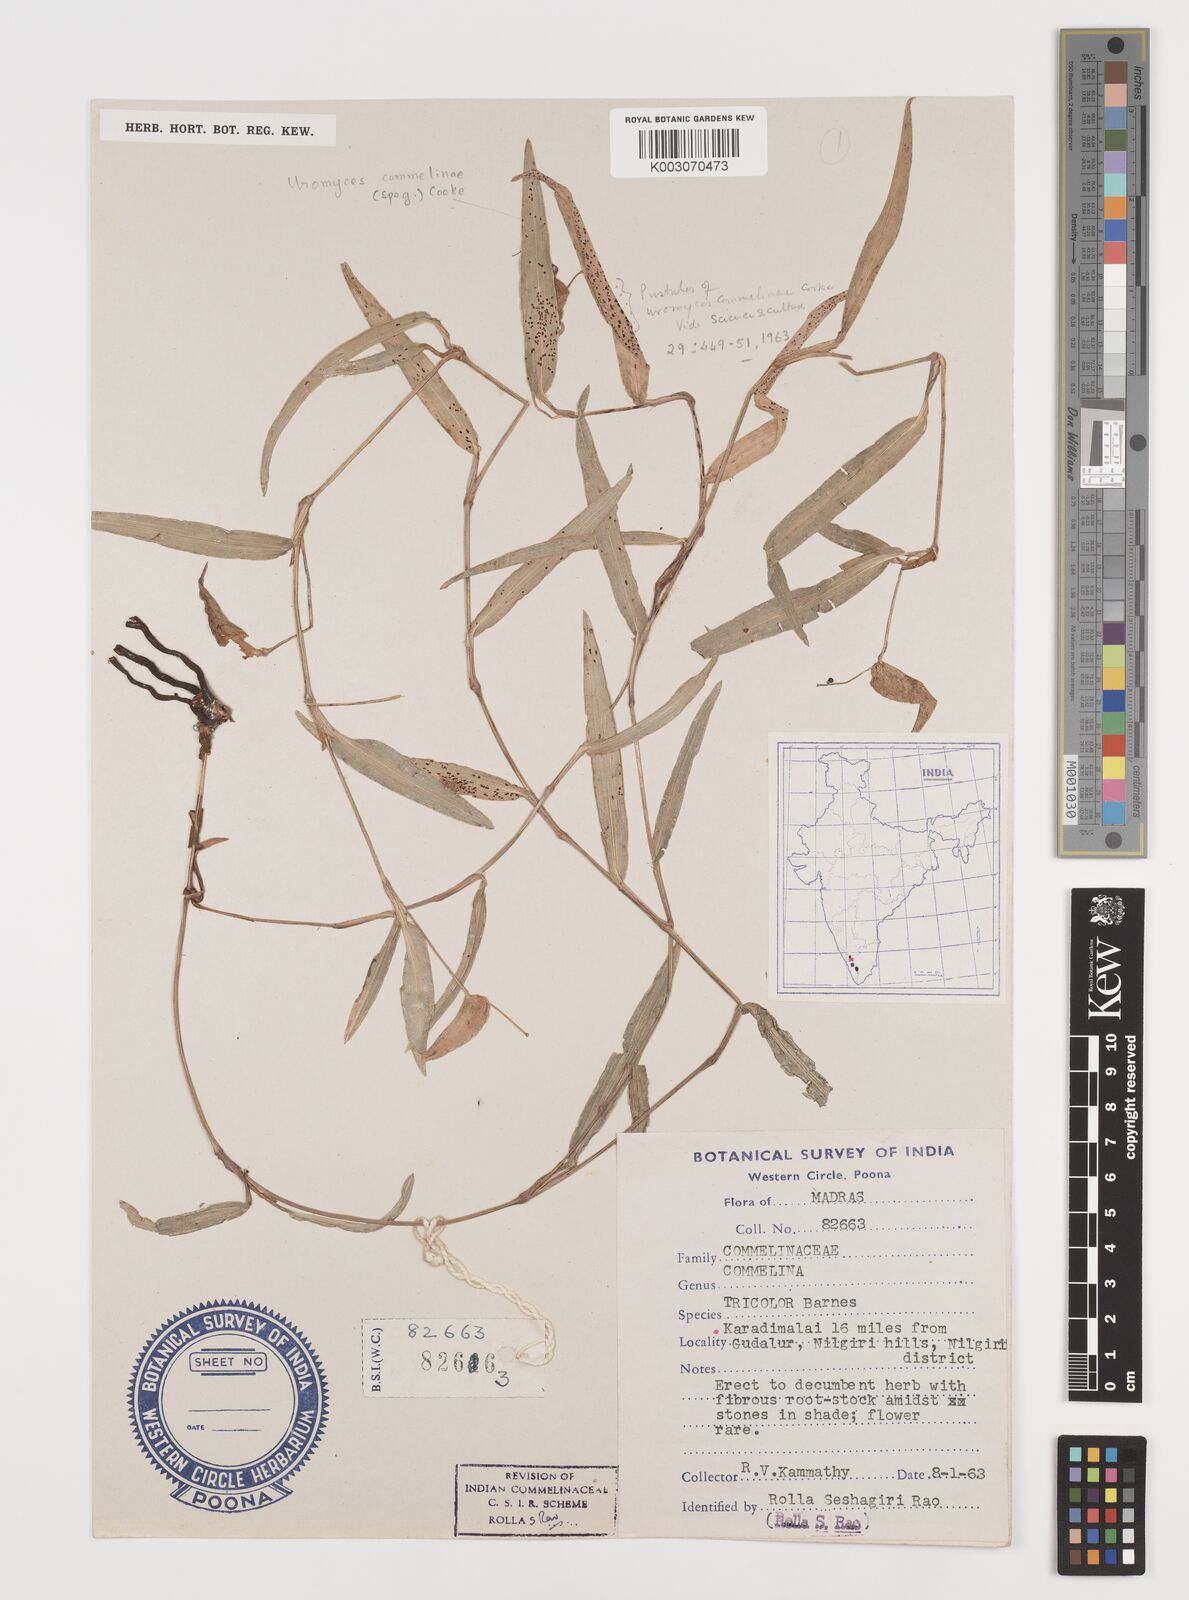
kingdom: Plantae
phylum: Tracheophyta
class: Liliopsida
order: Commelinales
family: Commelinaceae
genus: Commelina
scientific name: Commelina tricolor
